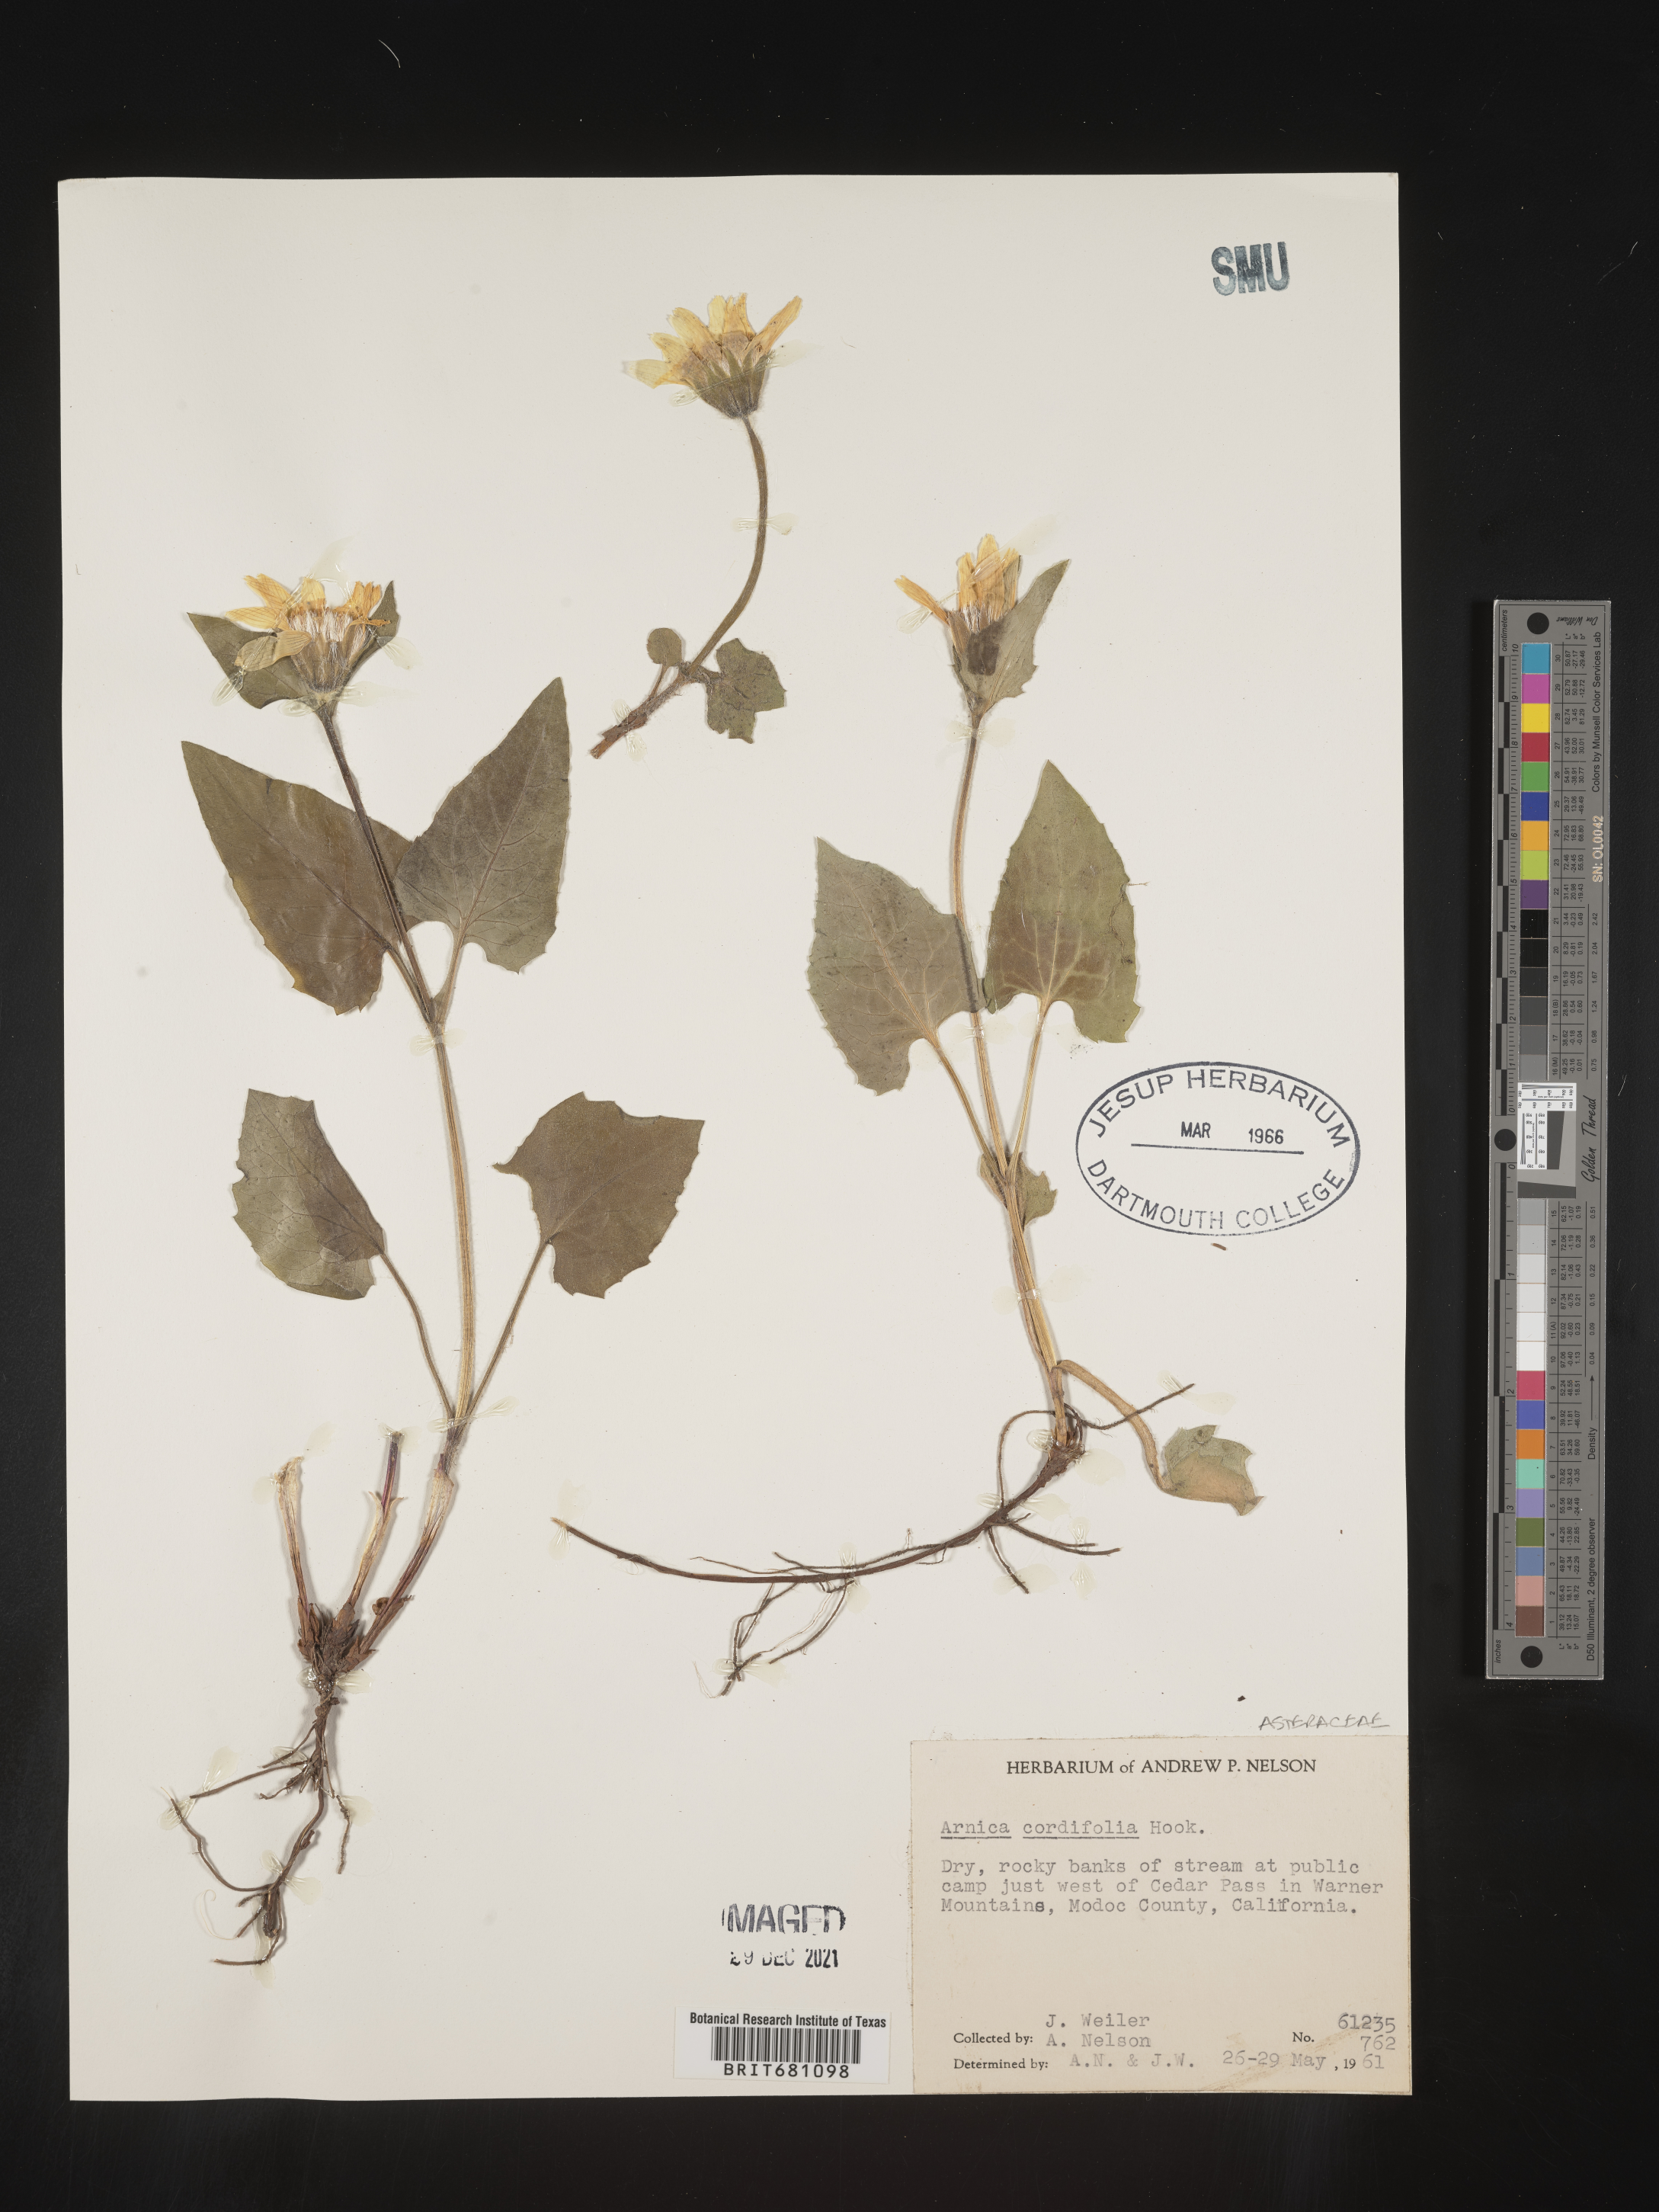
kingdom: Plantae
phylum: Tracheophyta
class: Magnoliopsida
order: Asterales
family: Asteraceae
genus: Arnica
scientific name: Arnica cordifolia
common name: Heart-leaf arnica
